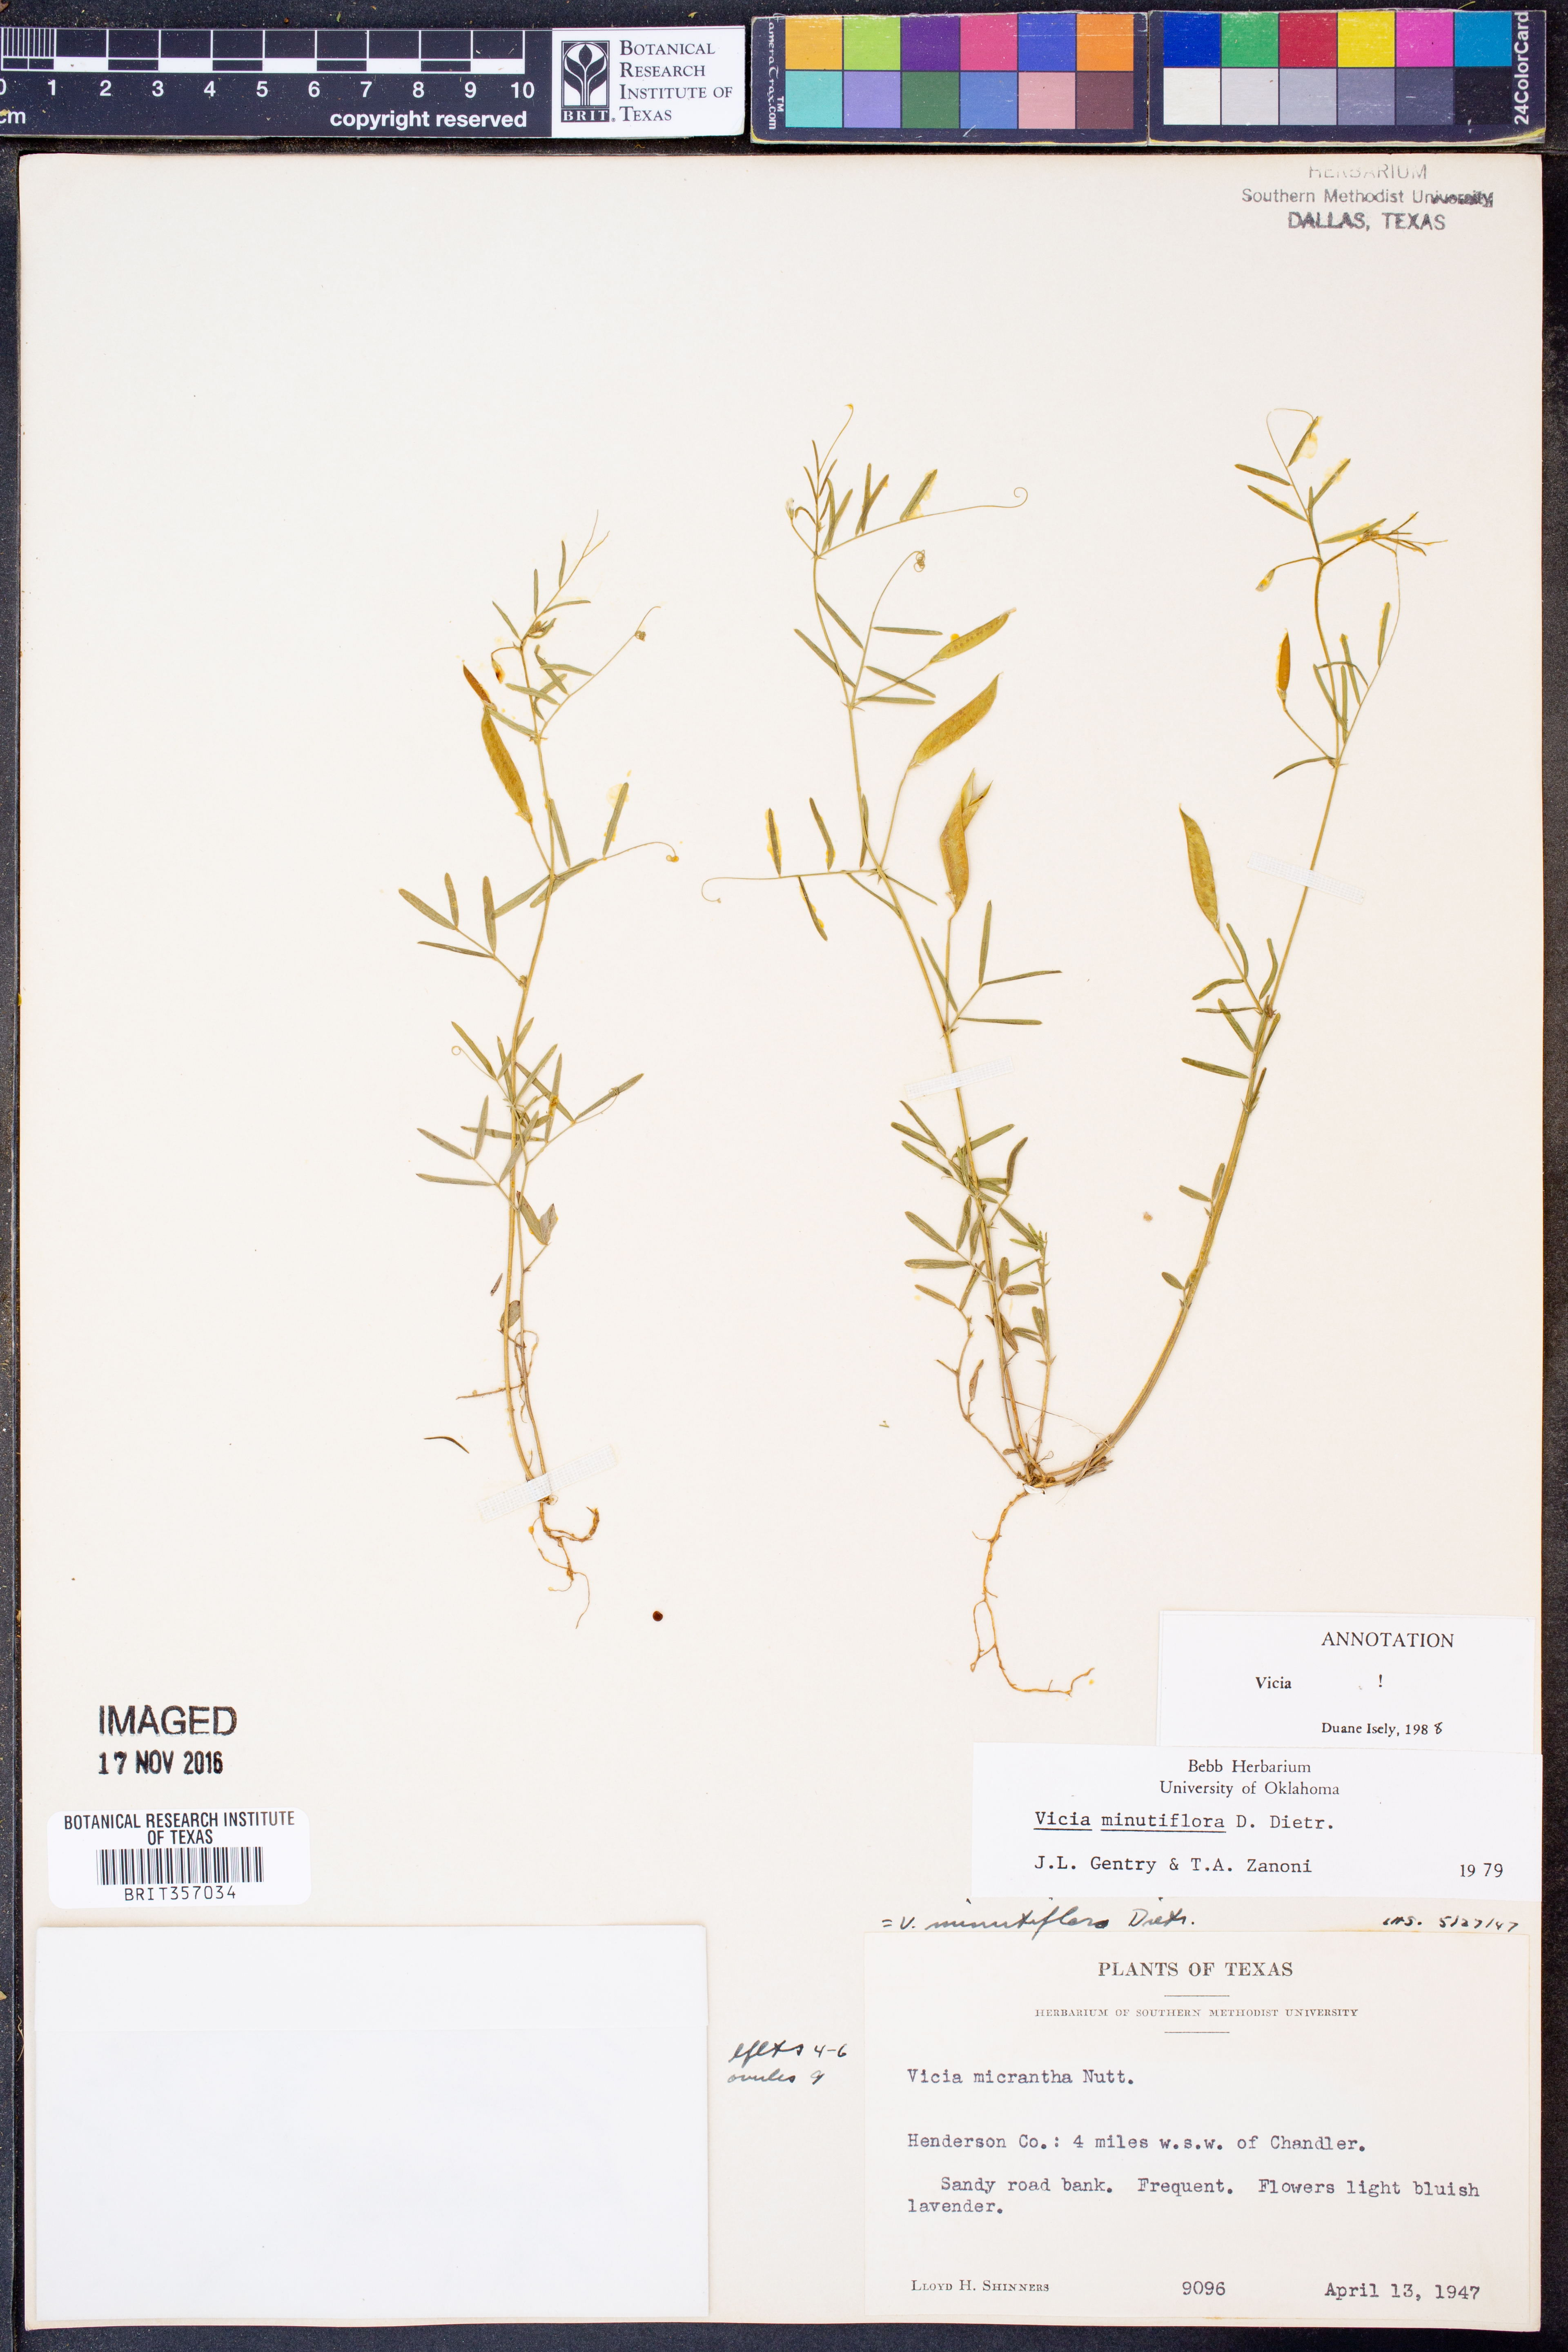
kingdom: Plantae
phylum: Tracheophyta
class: Magnoliopsida
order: Fabales
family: Fabaceae
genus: Vicia
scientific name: Vicia minutiflora
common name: Pygmy-flower vetch
